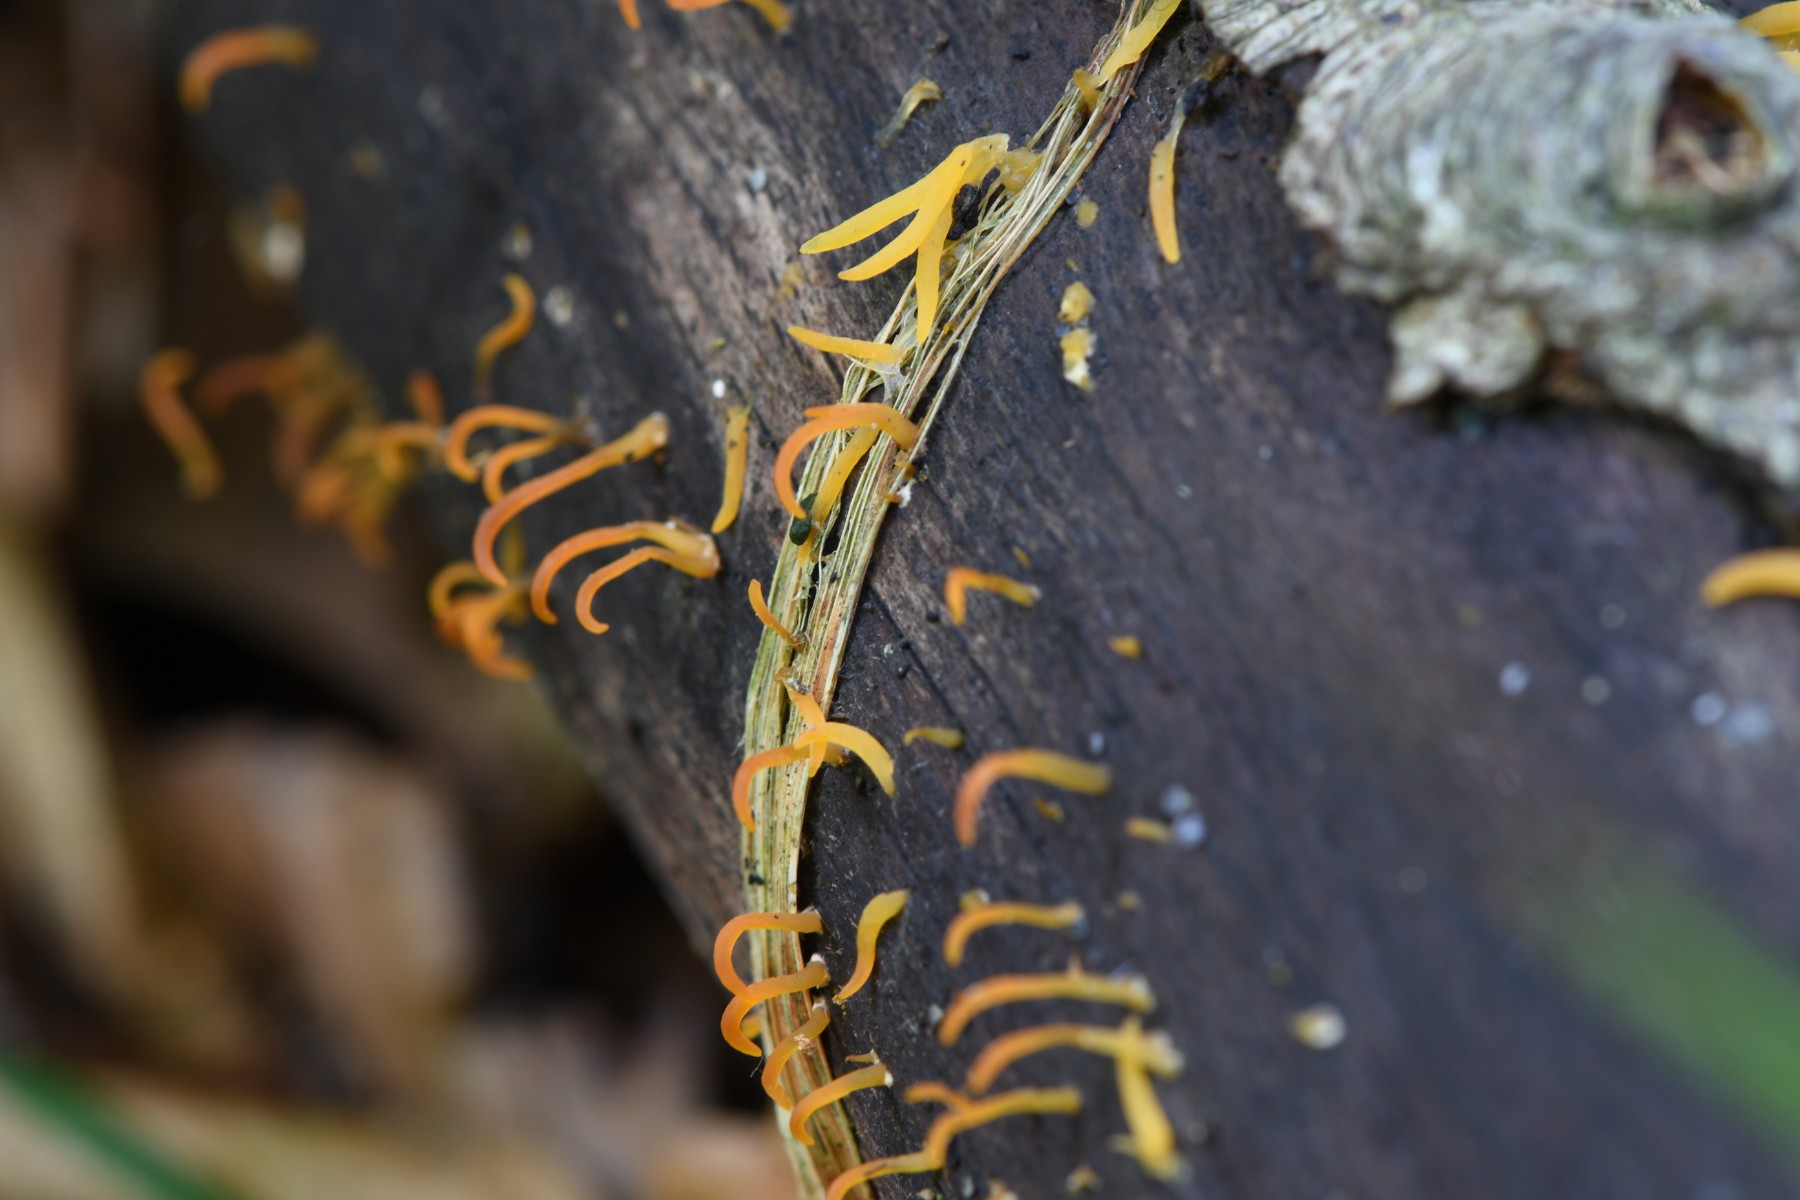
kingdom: Fungi
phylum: Basidiomycota
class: Dacrymycetes
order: Dacrymycetales
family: Dacrymycetaceae
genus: Calocera
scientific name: Calocera cornea
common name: liden guldgaffel
